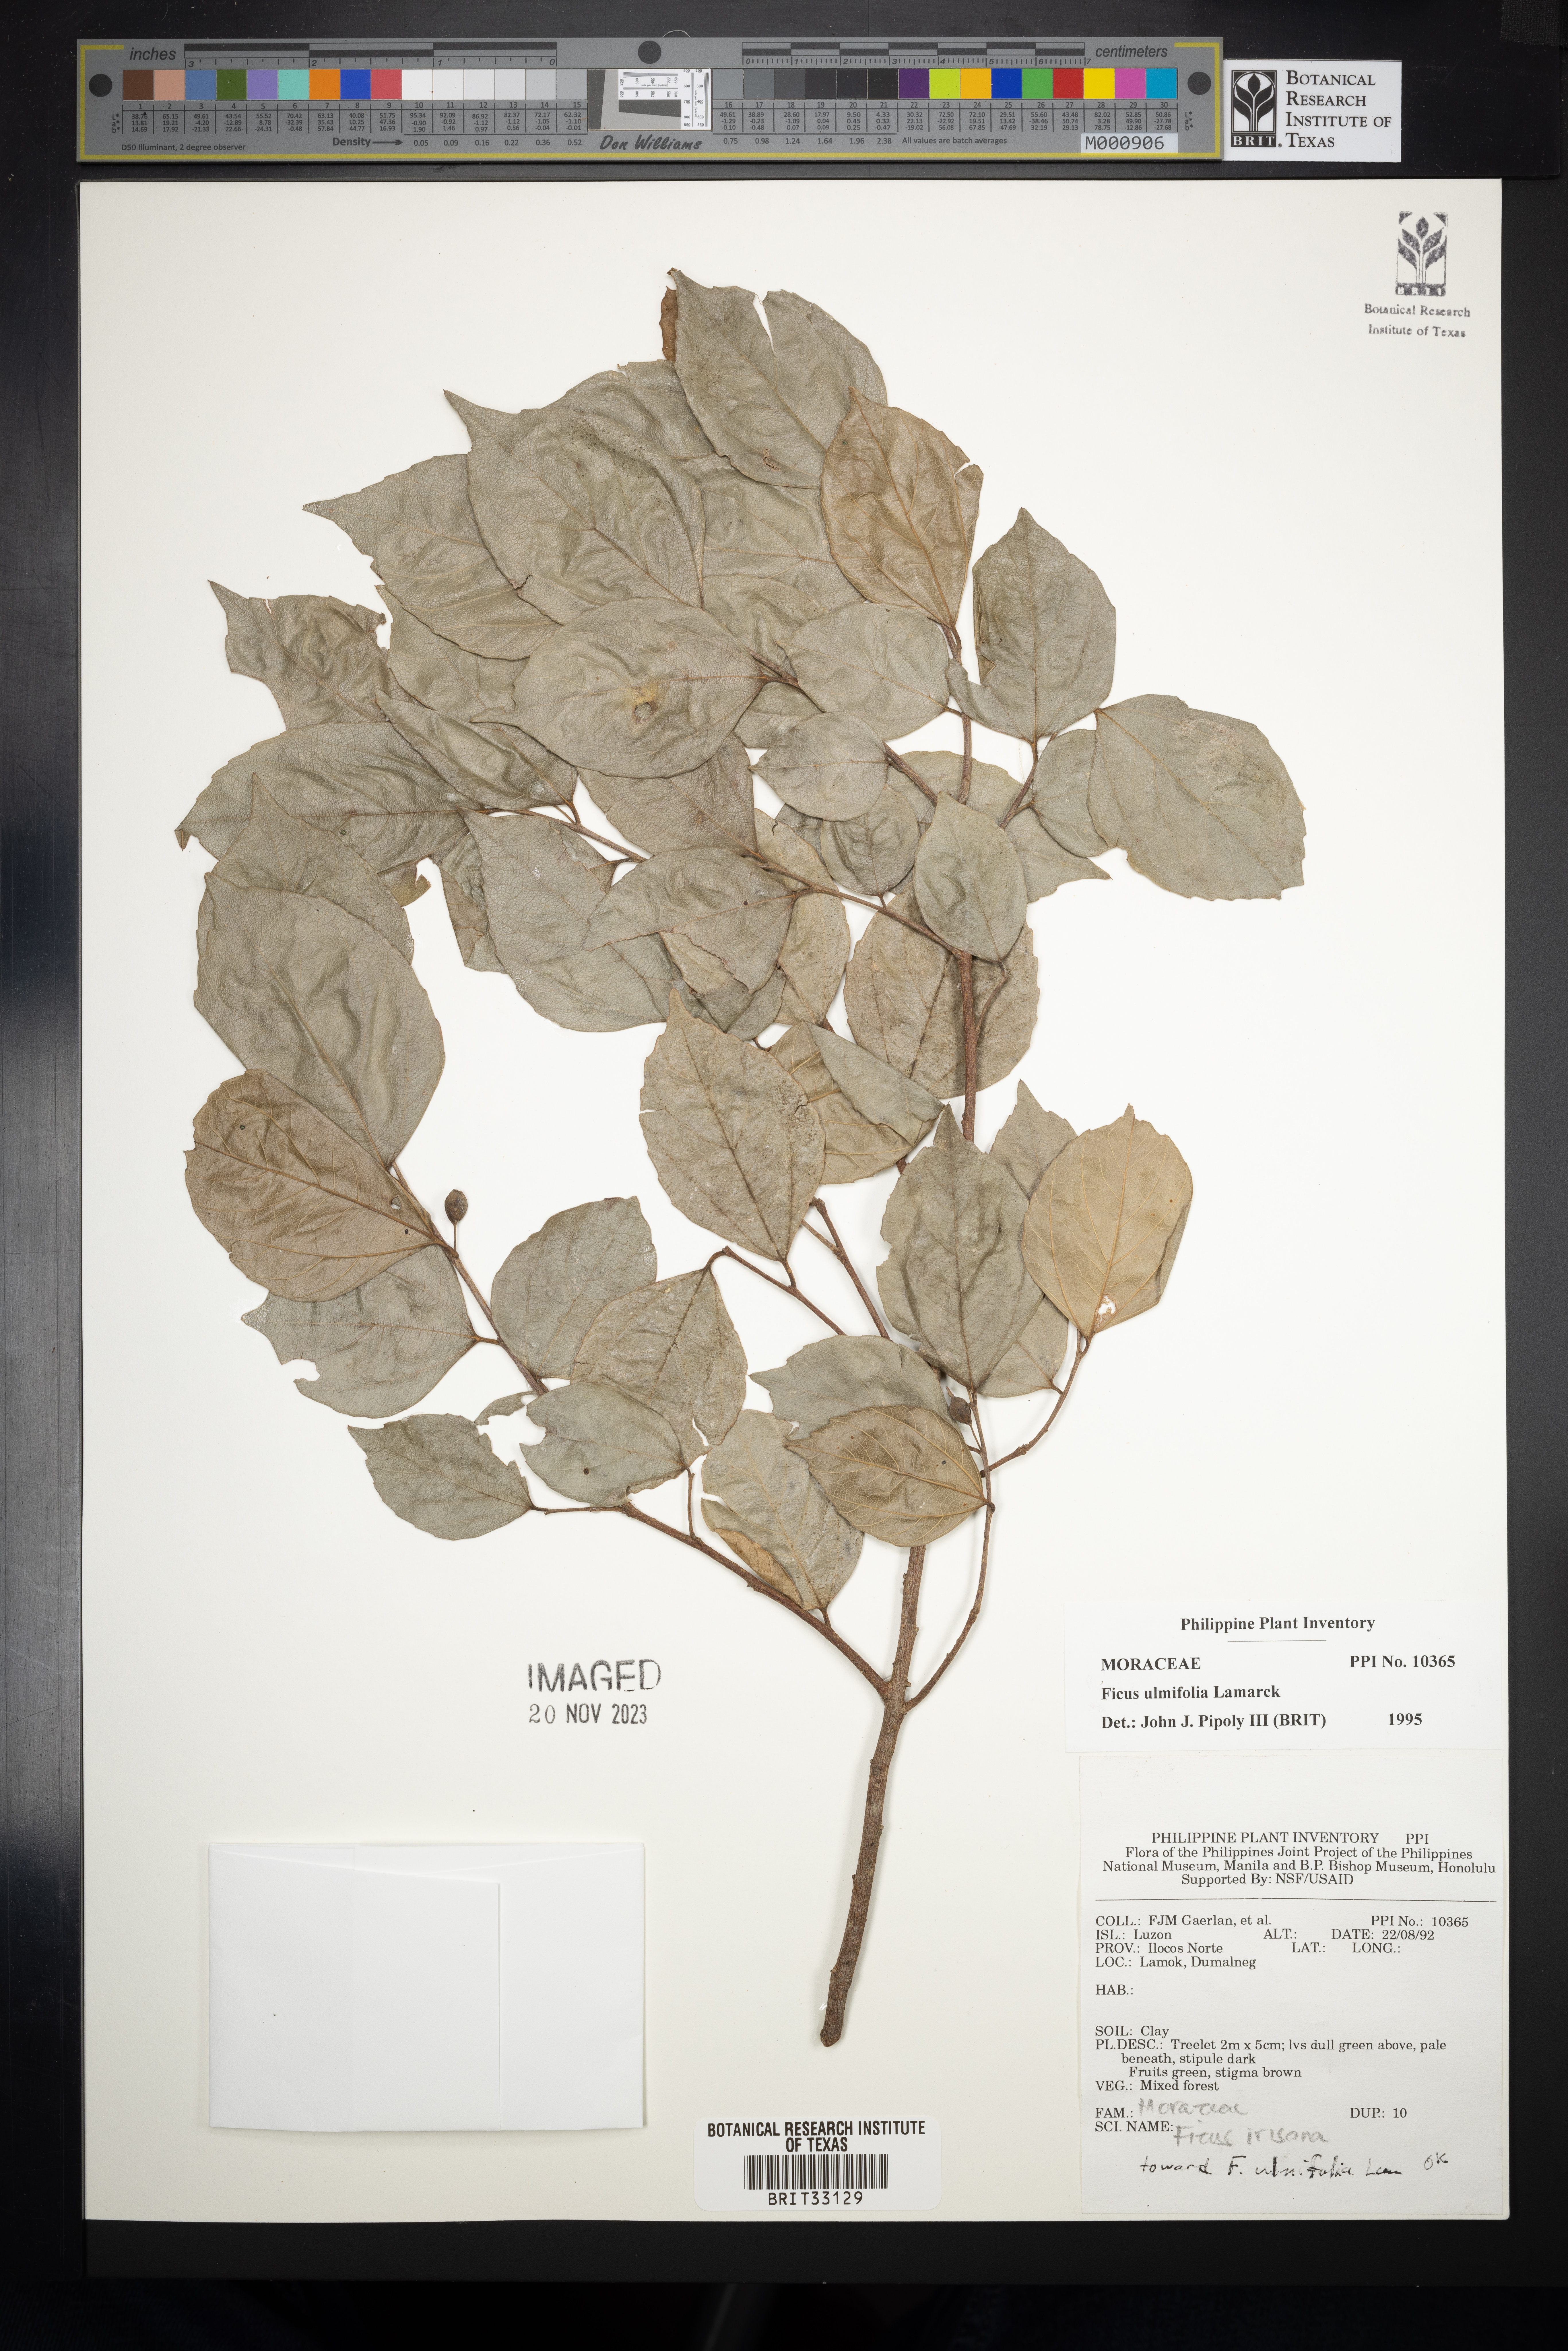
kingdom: Plantae
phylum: Tracheophyta
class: Magnoliopsida
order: Rosales
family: Moraceae
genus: Ficus
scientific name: Ficus ulmifolia
